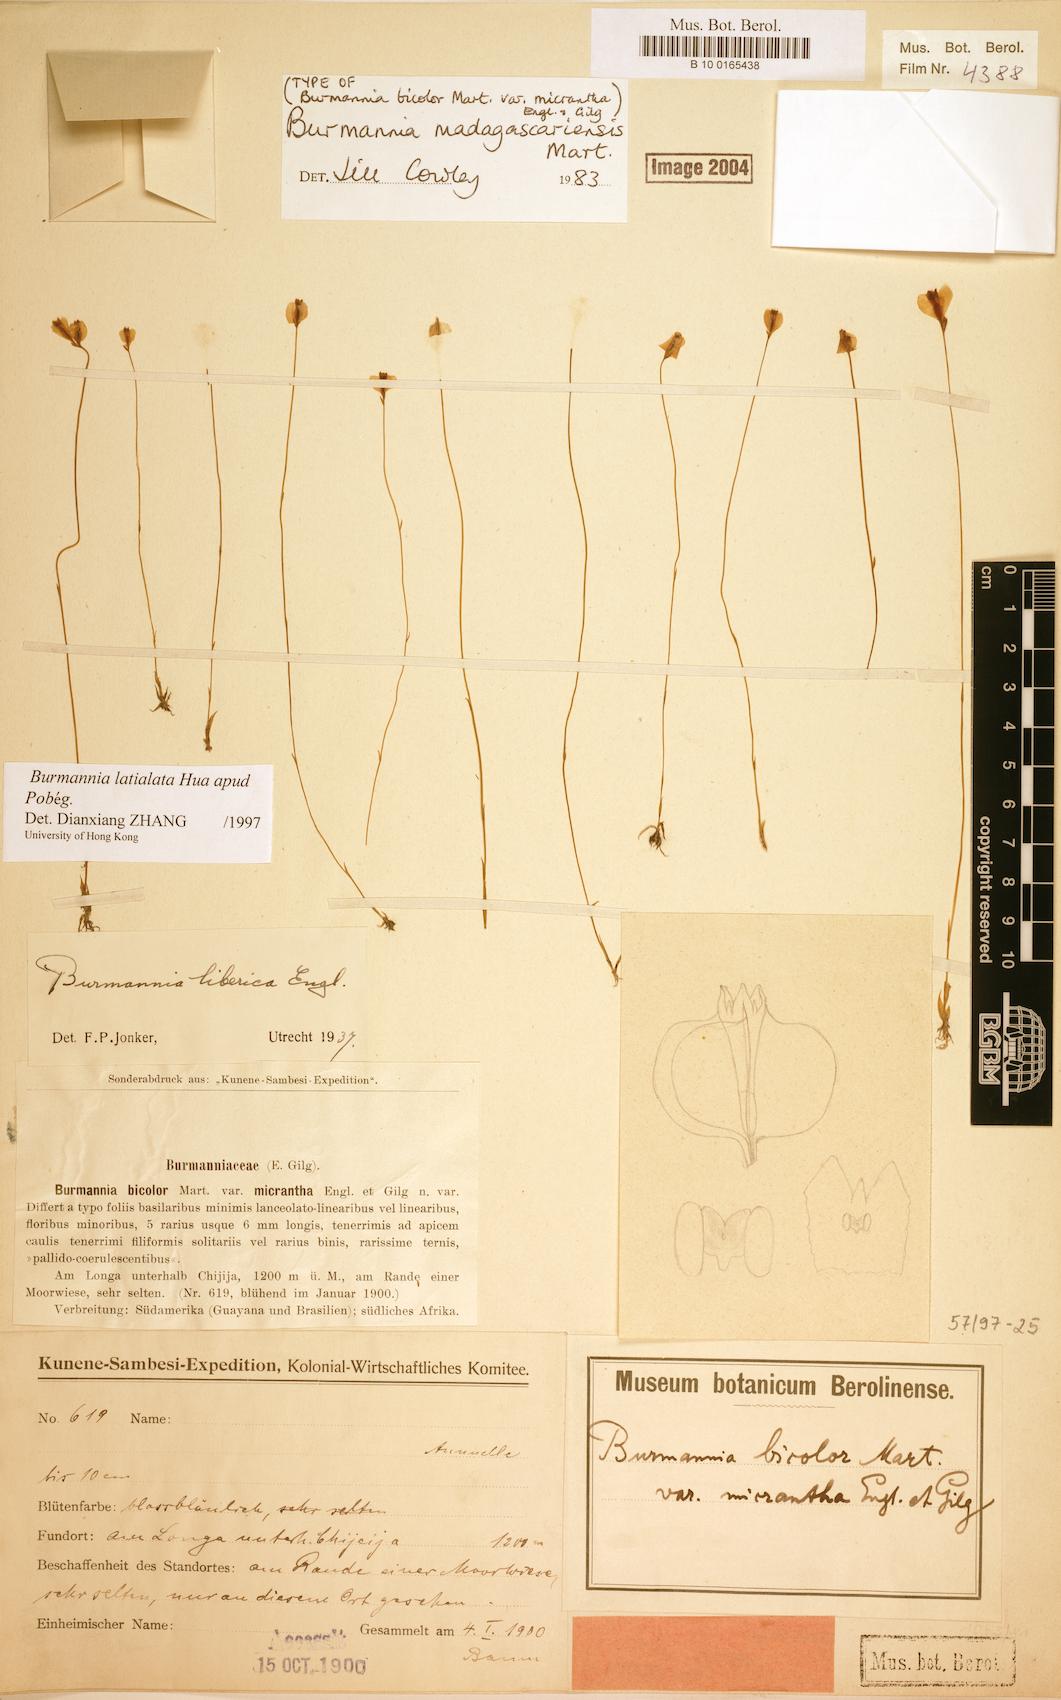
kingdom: Plantae
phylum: Tracheophyta
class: Liliopsida
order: Dioscoreales
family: Burmanniaceae
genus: Burmannia
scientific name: Burmannia latialata
